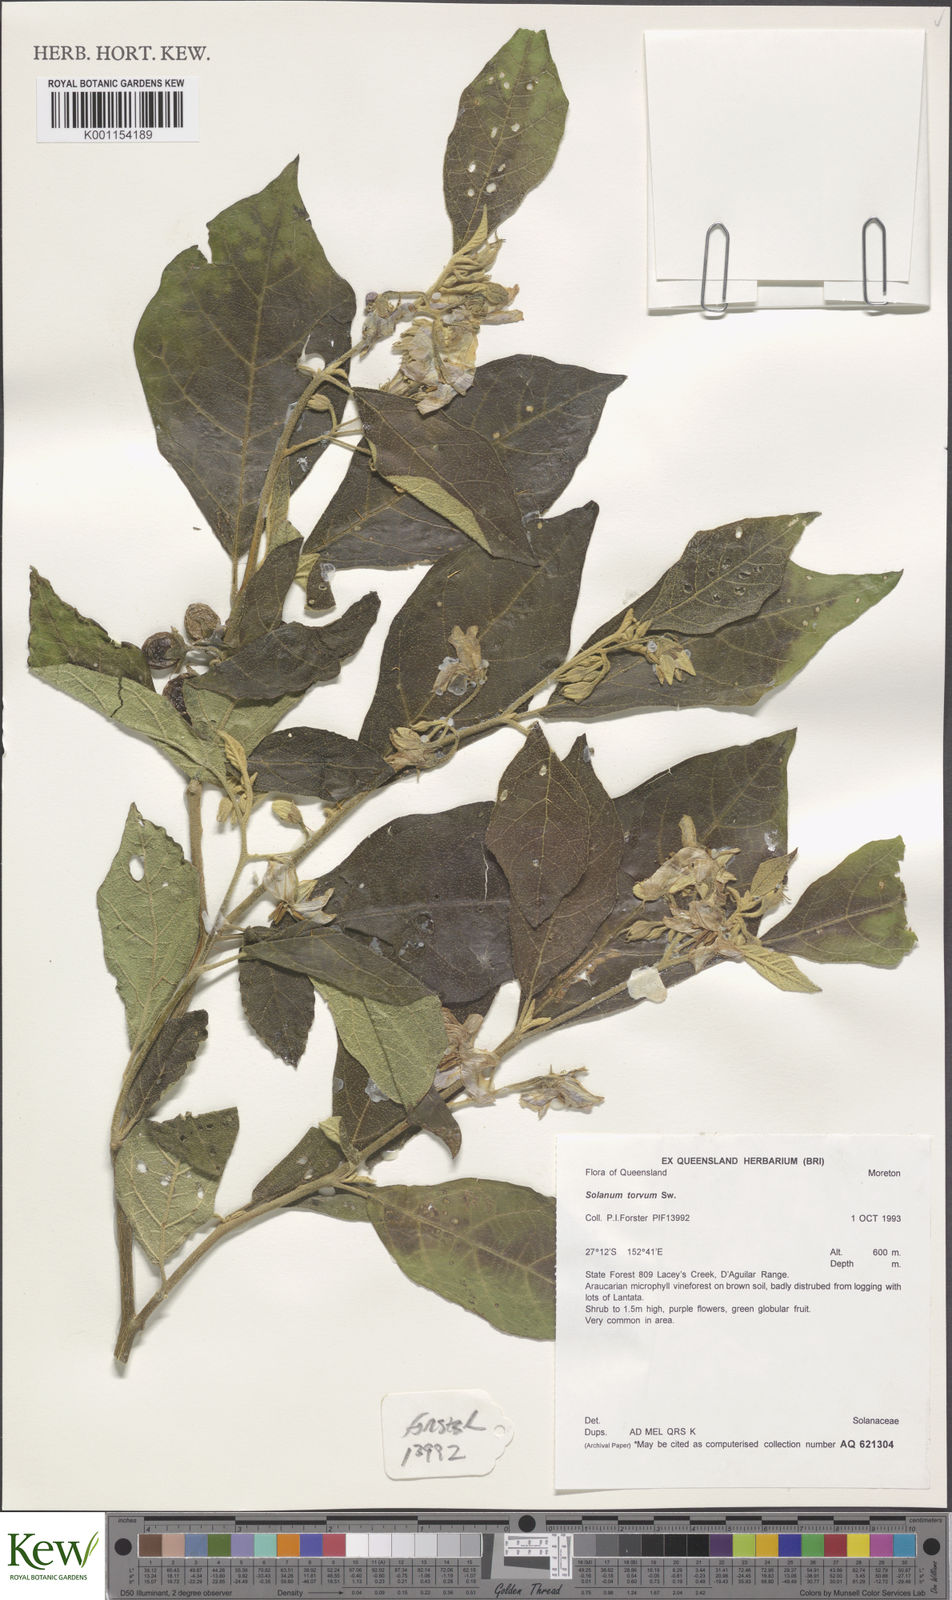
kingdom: Plantae
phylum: Tracheophyta
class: Magnoliopsida
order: Solanales
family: Solanaceae
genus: Solanum
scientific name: Solanum torvum
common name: Turkey berry
